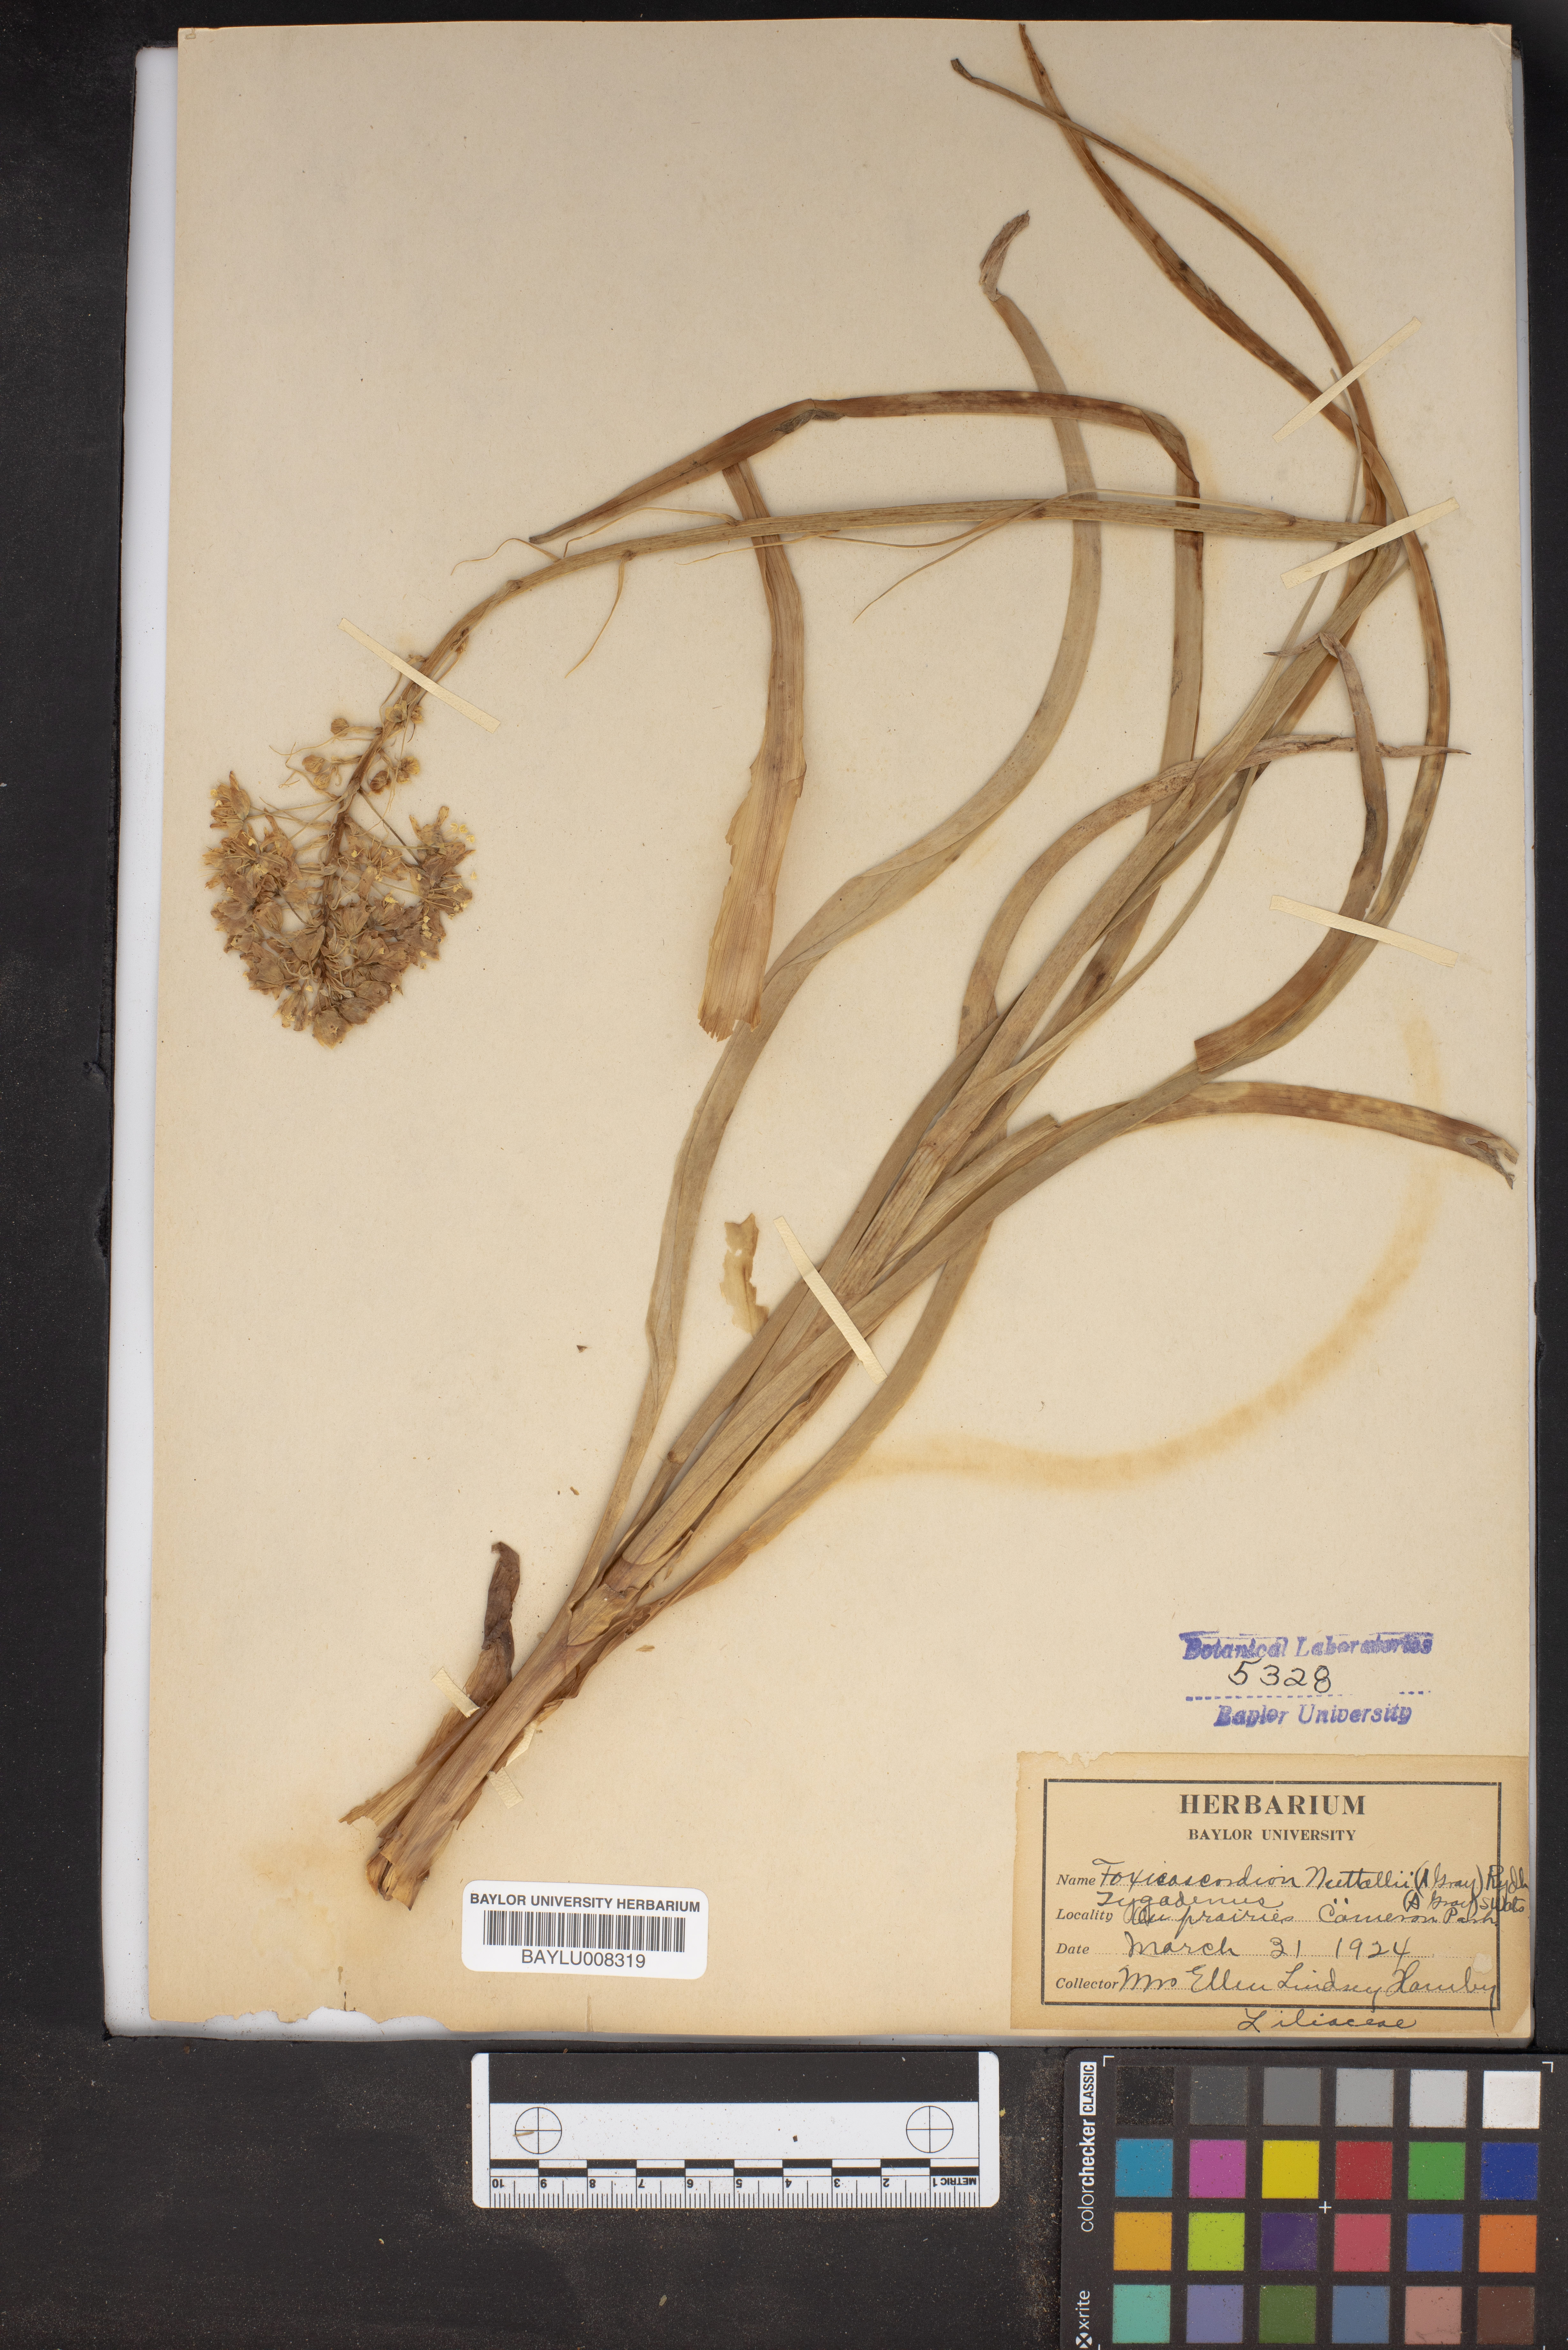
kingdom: Plantae
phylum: Tracheophyta
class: Liliopsida
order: Liliales
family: Melanthiaceae
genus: Toxicoscordion
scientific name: Toxicoscordion nuttallii
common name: Poison sego
